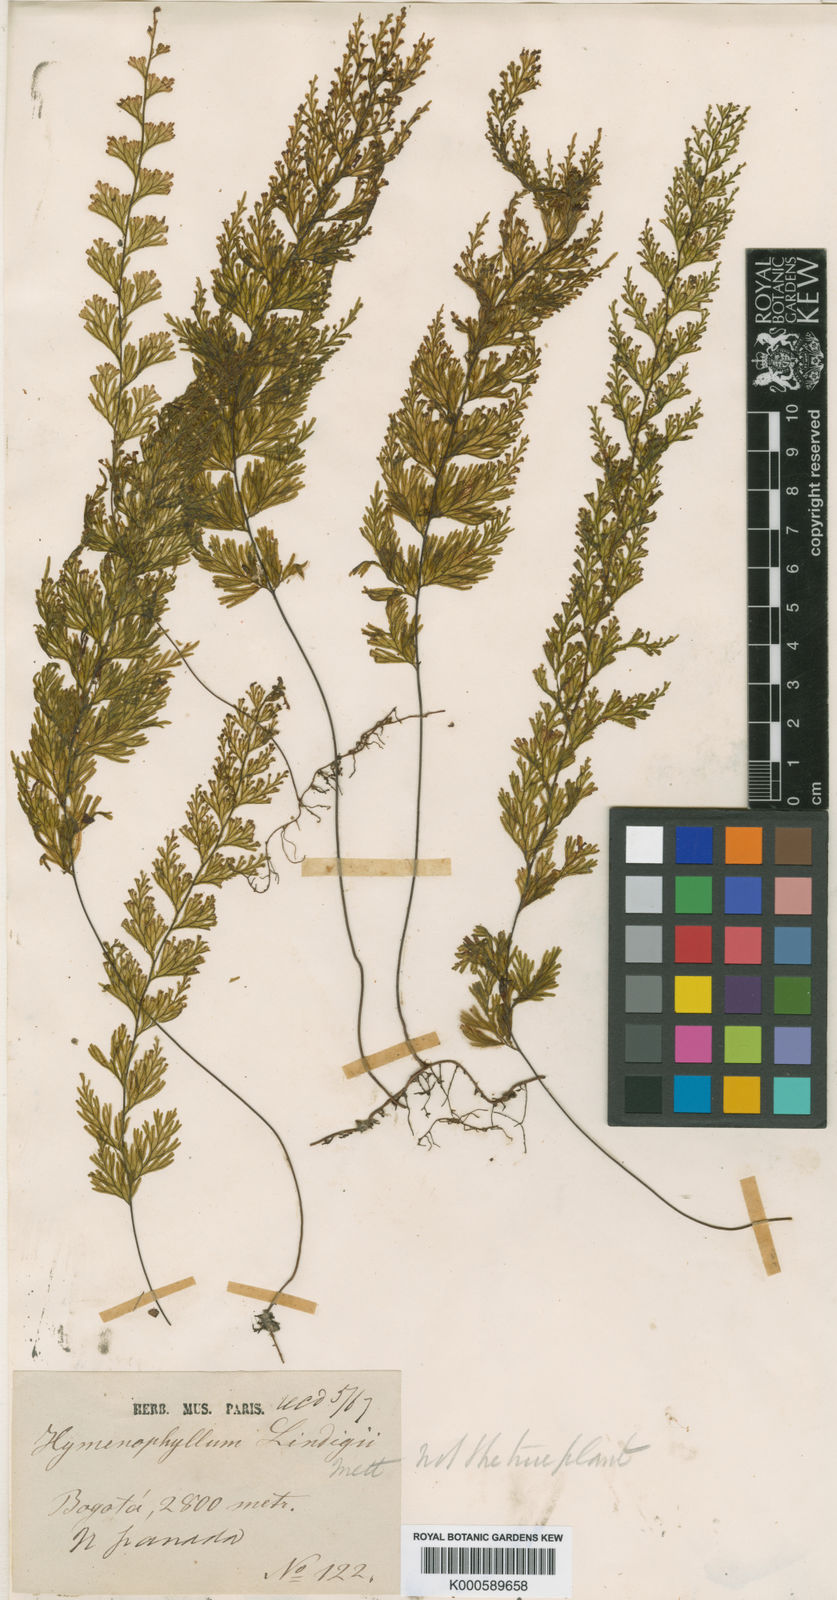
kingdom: Plantae
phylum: Tracheophyta
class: Polypodiopsida
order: Hymenophyllales
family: Hymenophyllaceae
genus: Hymenophyllum
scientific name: Hymenophyllum lindigii
